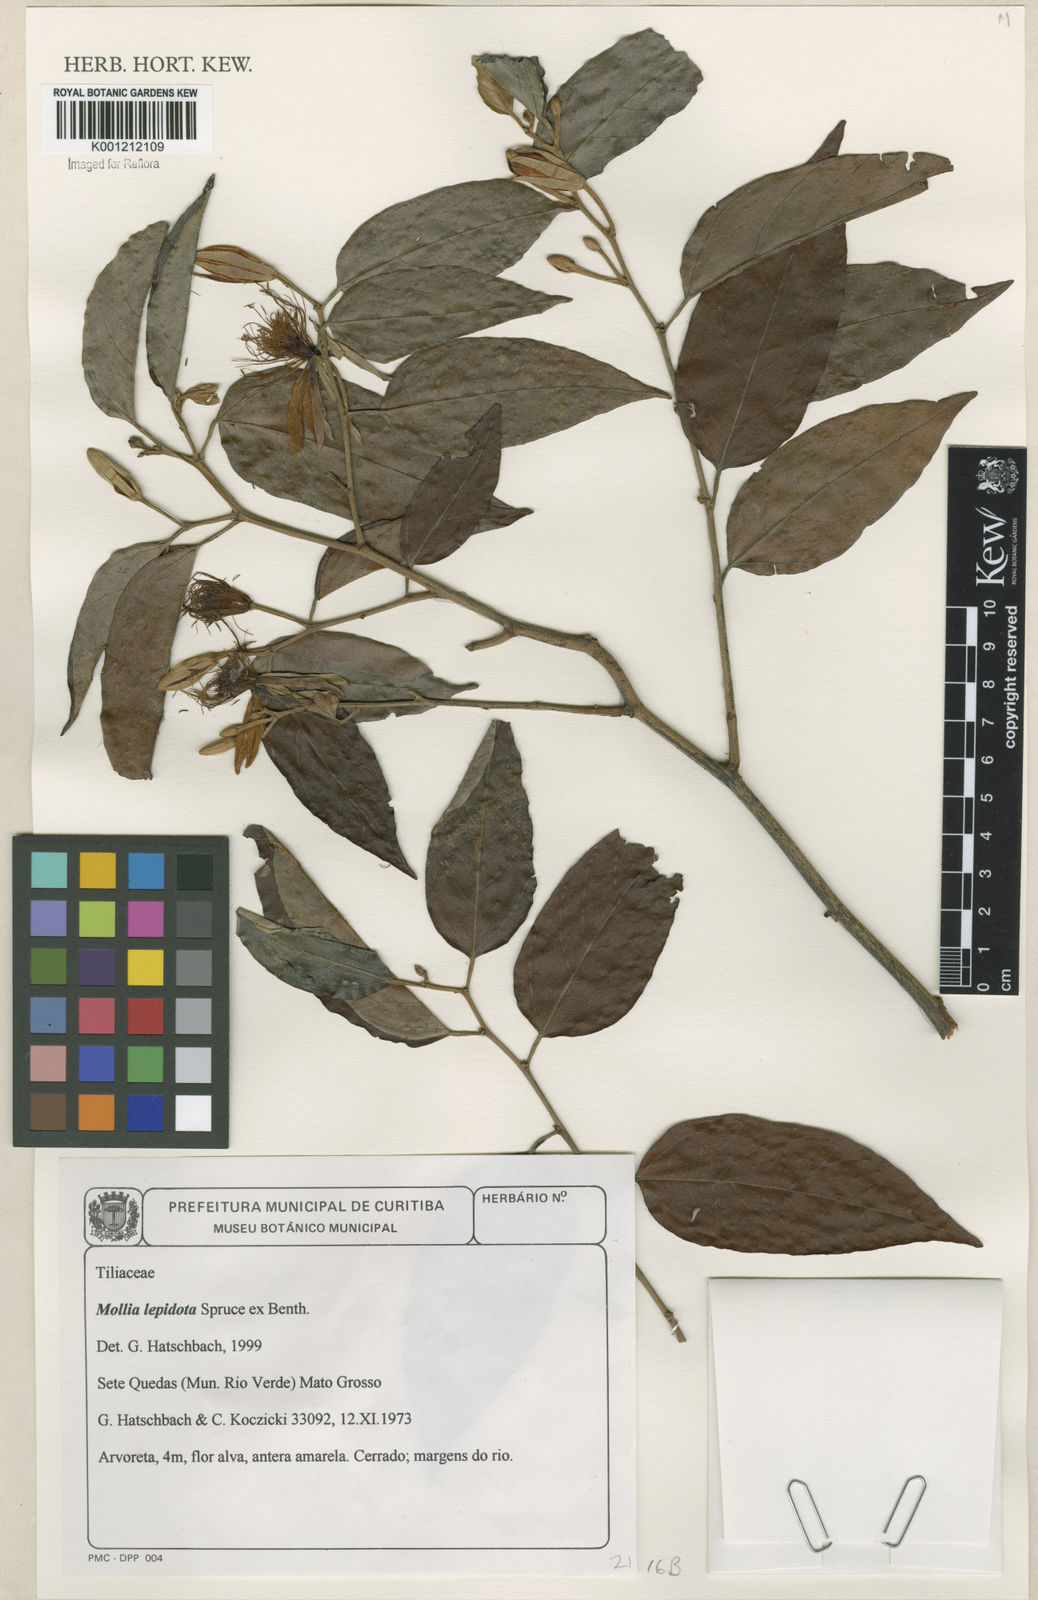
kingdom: Plantae
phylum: Tracheophyta
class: Magnoliopsida
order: Malvales
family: Malvaceae
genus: Mollia
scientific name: Mollia lepidota
